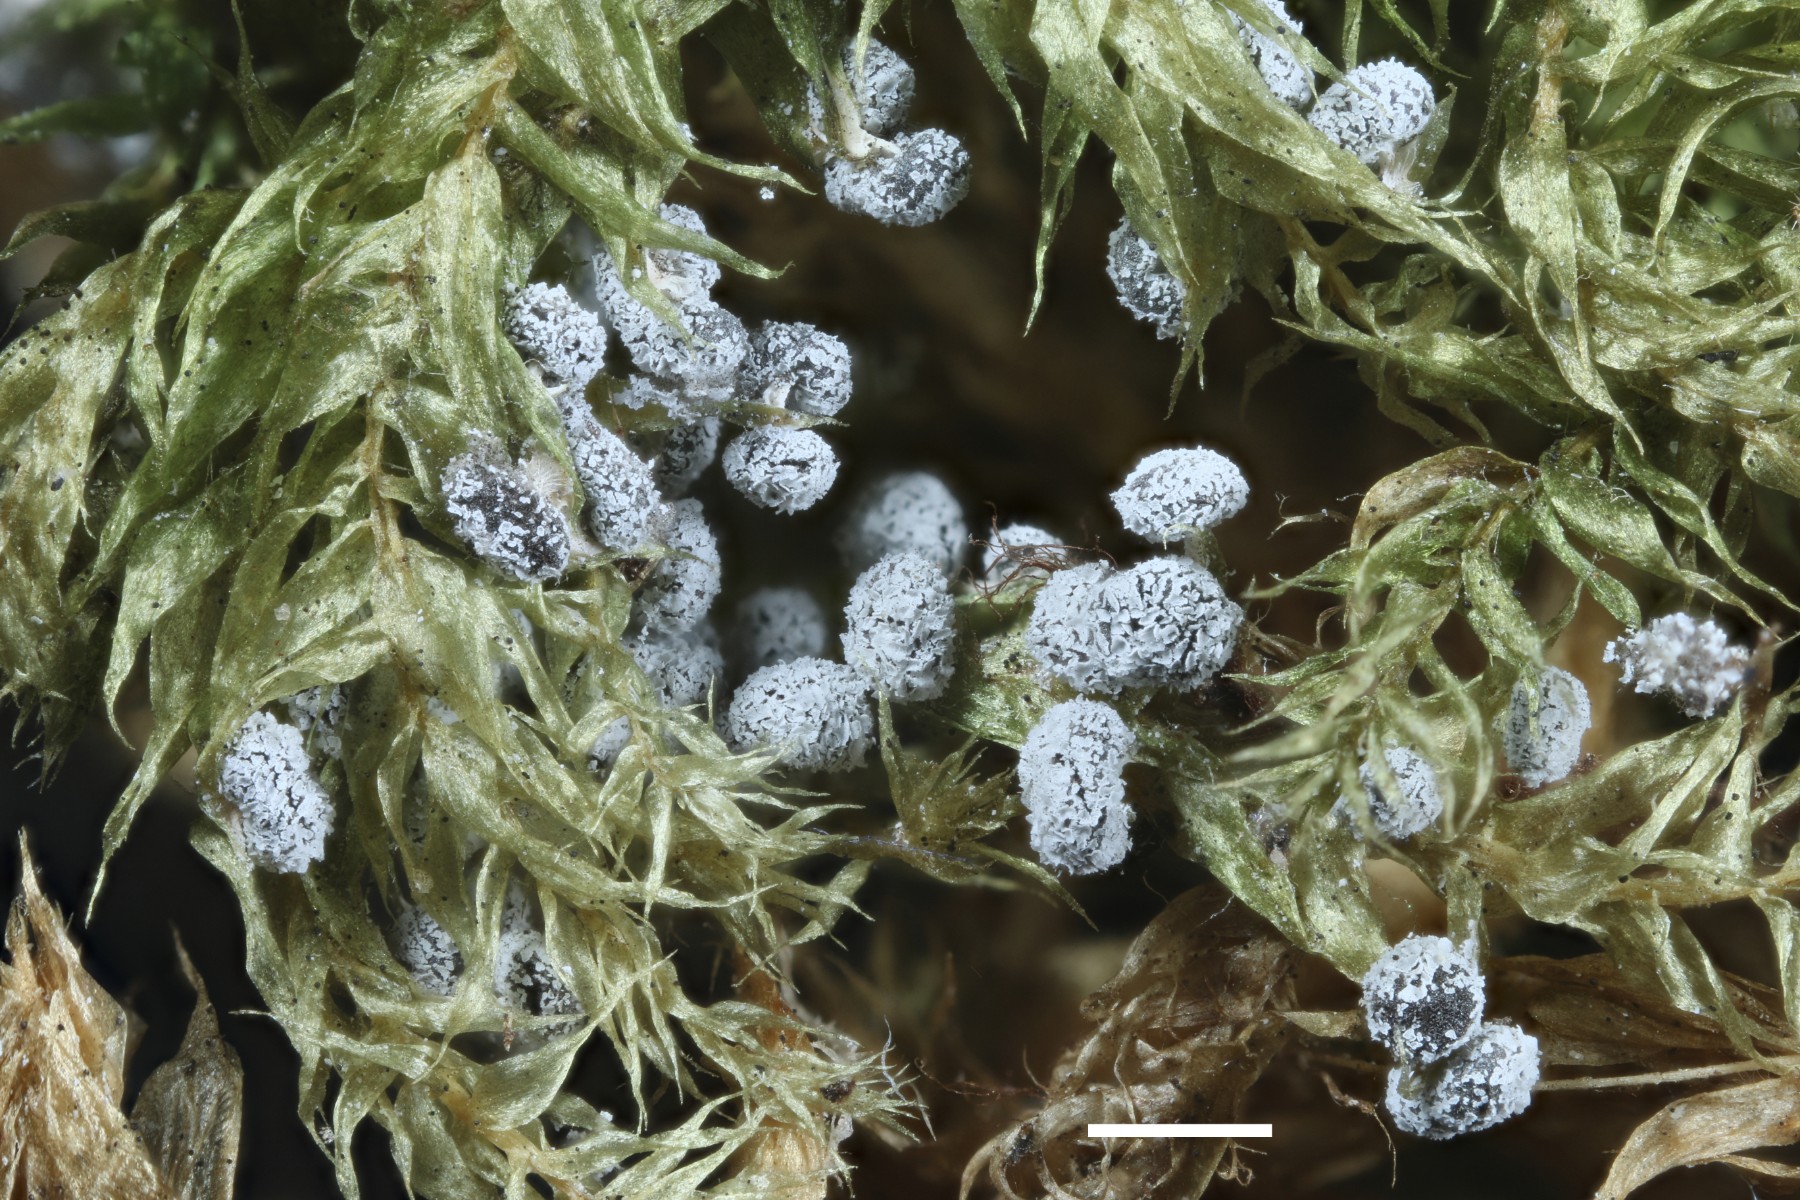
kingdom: Protozoa
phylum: Mycetozoa
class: Myxomycetes
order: Physarales
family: Didymiaceae
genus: Didymium
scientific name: Didymium squamulosum
